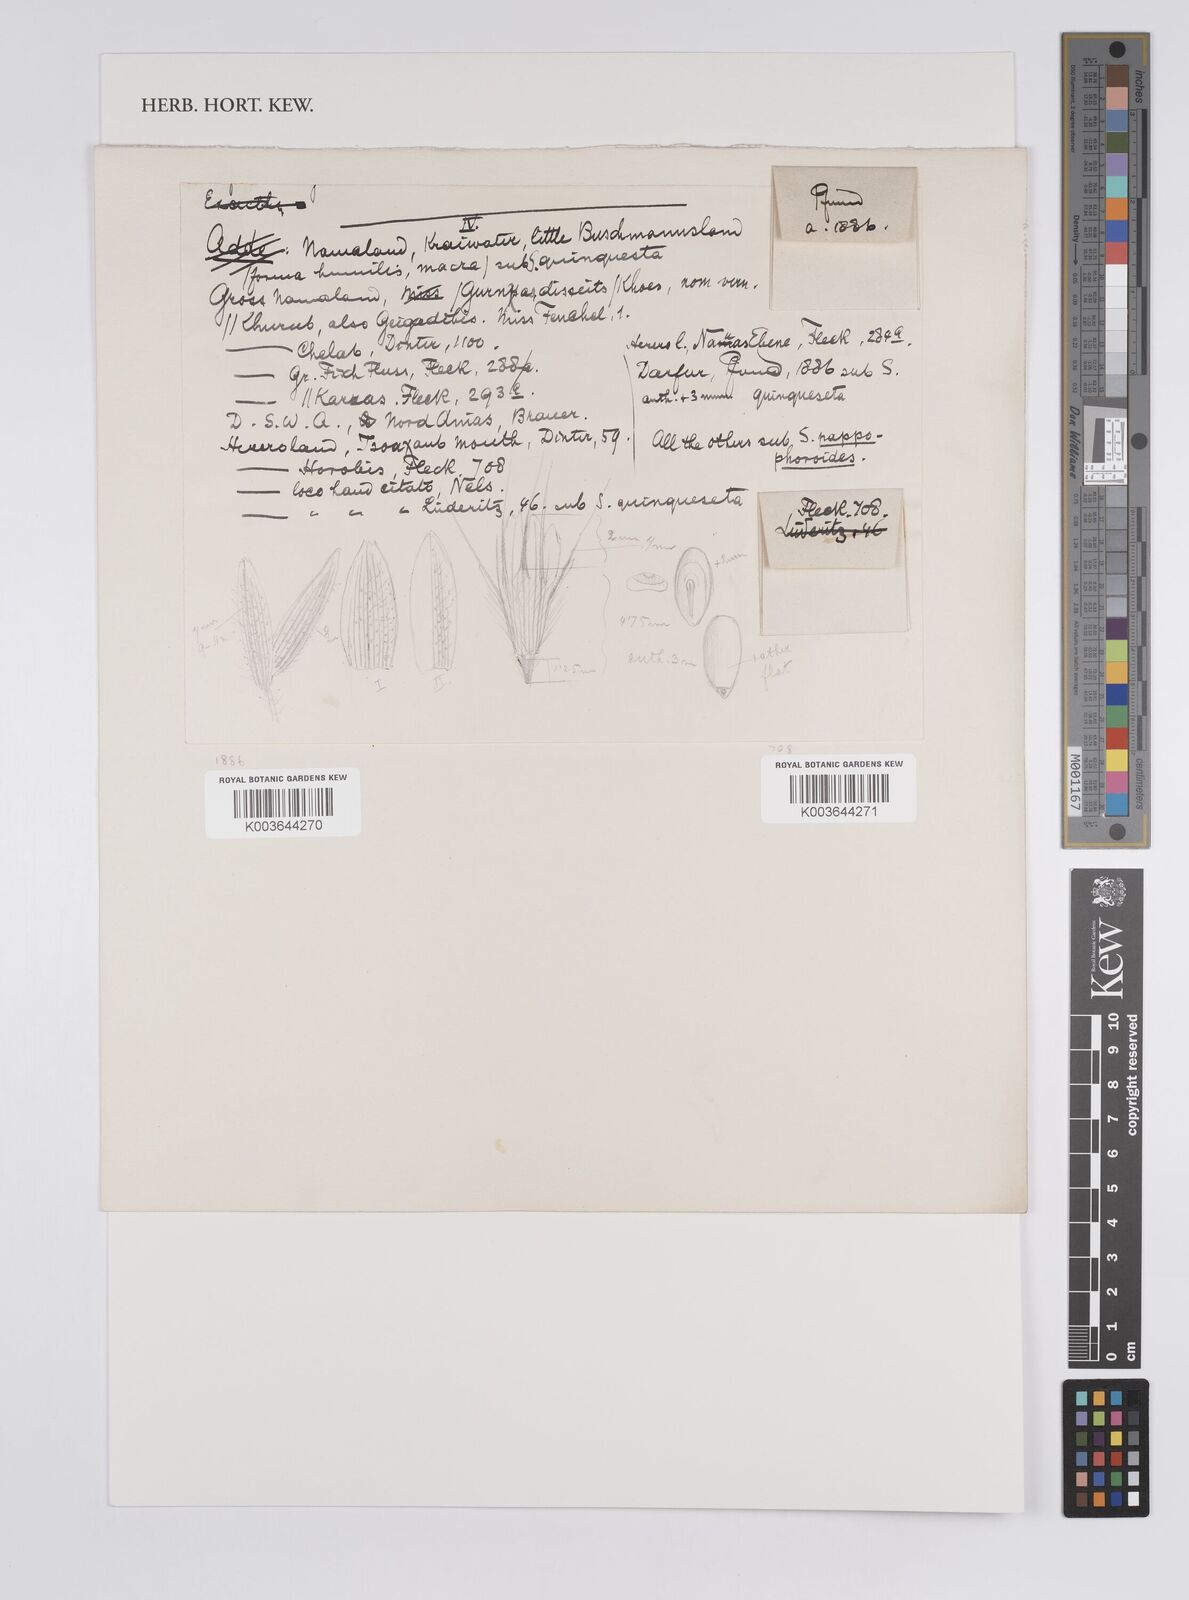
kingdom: Plantae
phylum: Tracheophyta
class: Liliopsida
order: Poales
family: Poaceae
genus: Schmidtia
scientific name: Schmidtia kalahariensis
